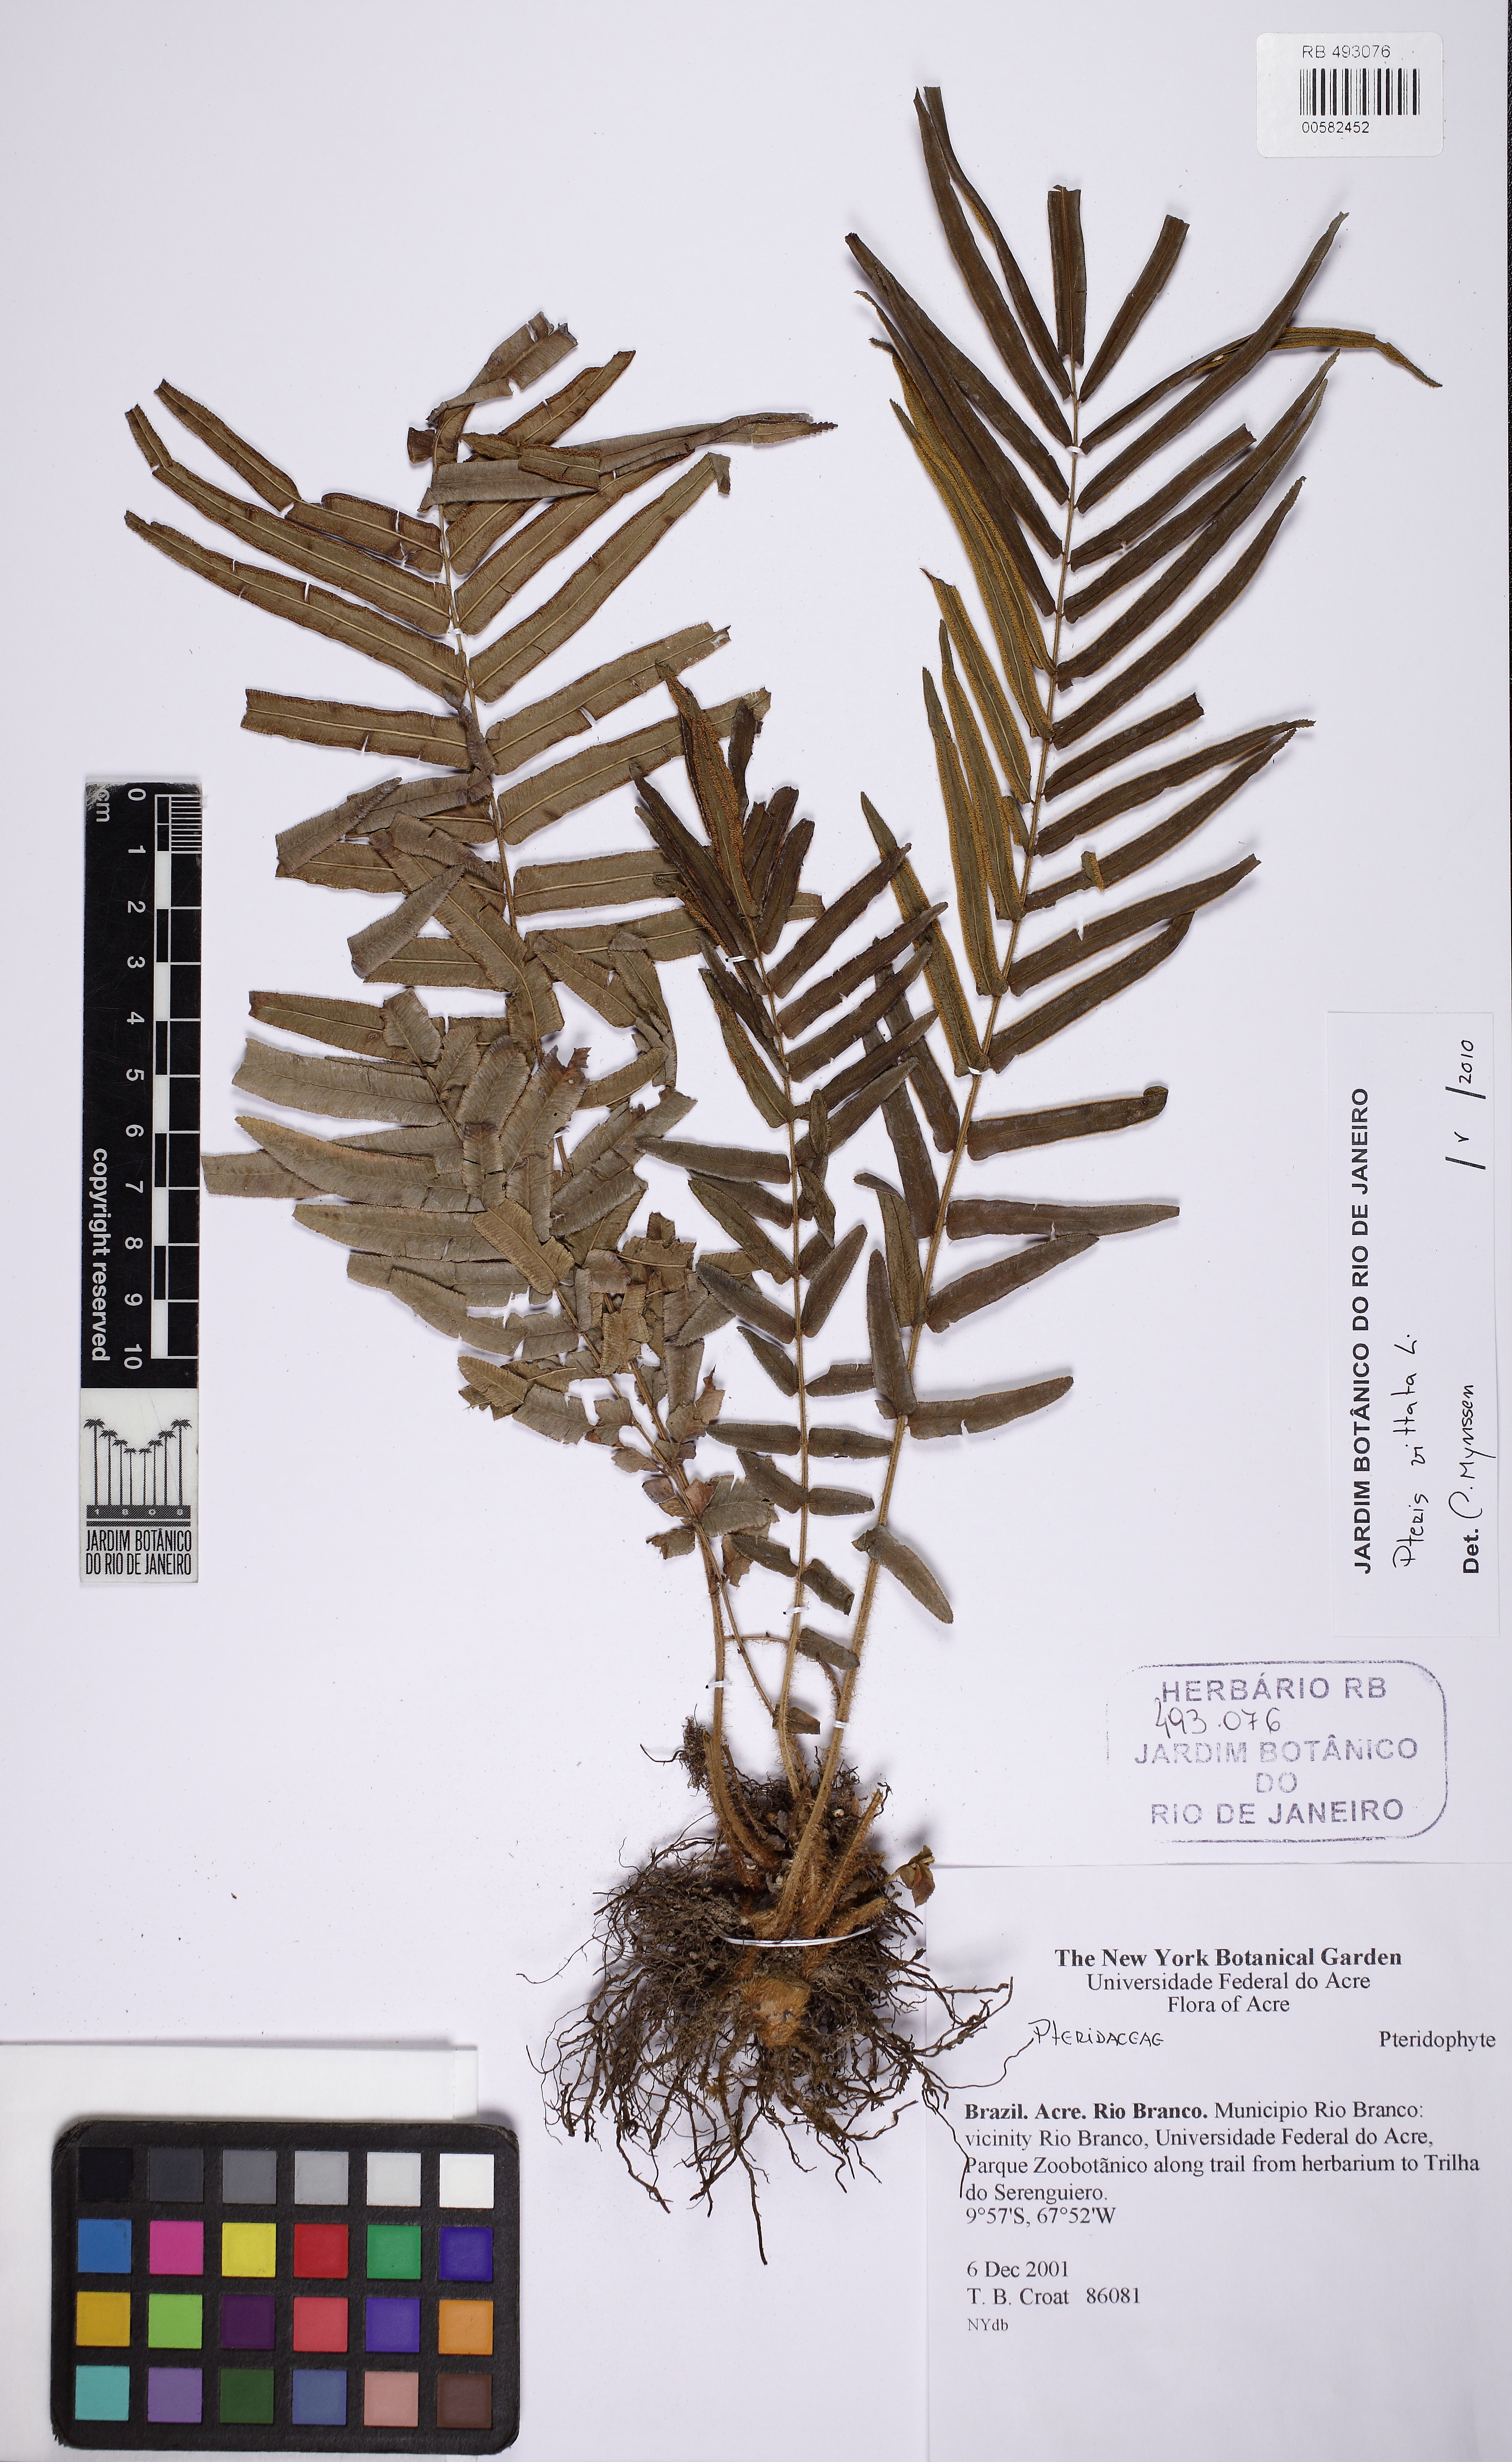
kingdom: Plantae
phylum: Tracheophyta
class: Polypodiopsida
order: Polypodiales
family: Pteridaceae
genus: Pteris
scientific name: Pteris vittata
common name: Ladder brake
